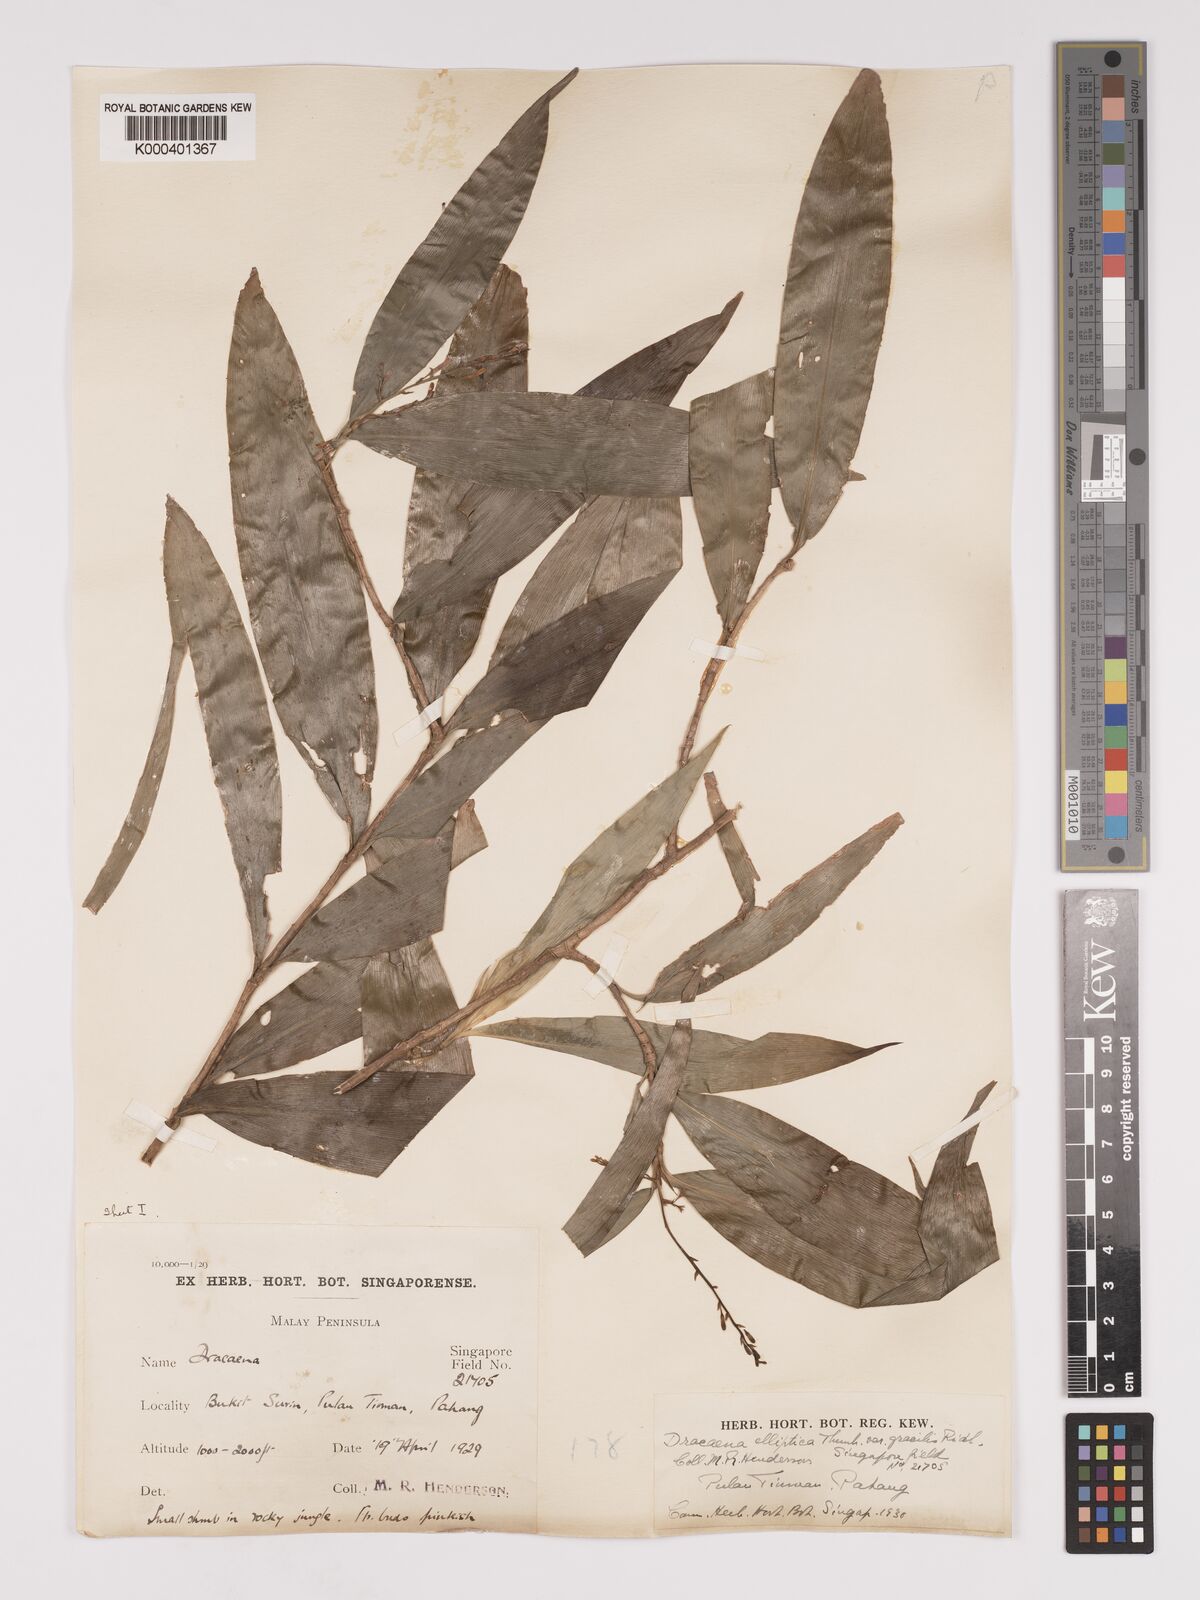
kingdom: Plantae
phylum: Tracheophyta
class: Liliopsida
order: Asparagales
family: Asparagaceae
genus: Dracaena
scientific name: Dracaena elliptica
